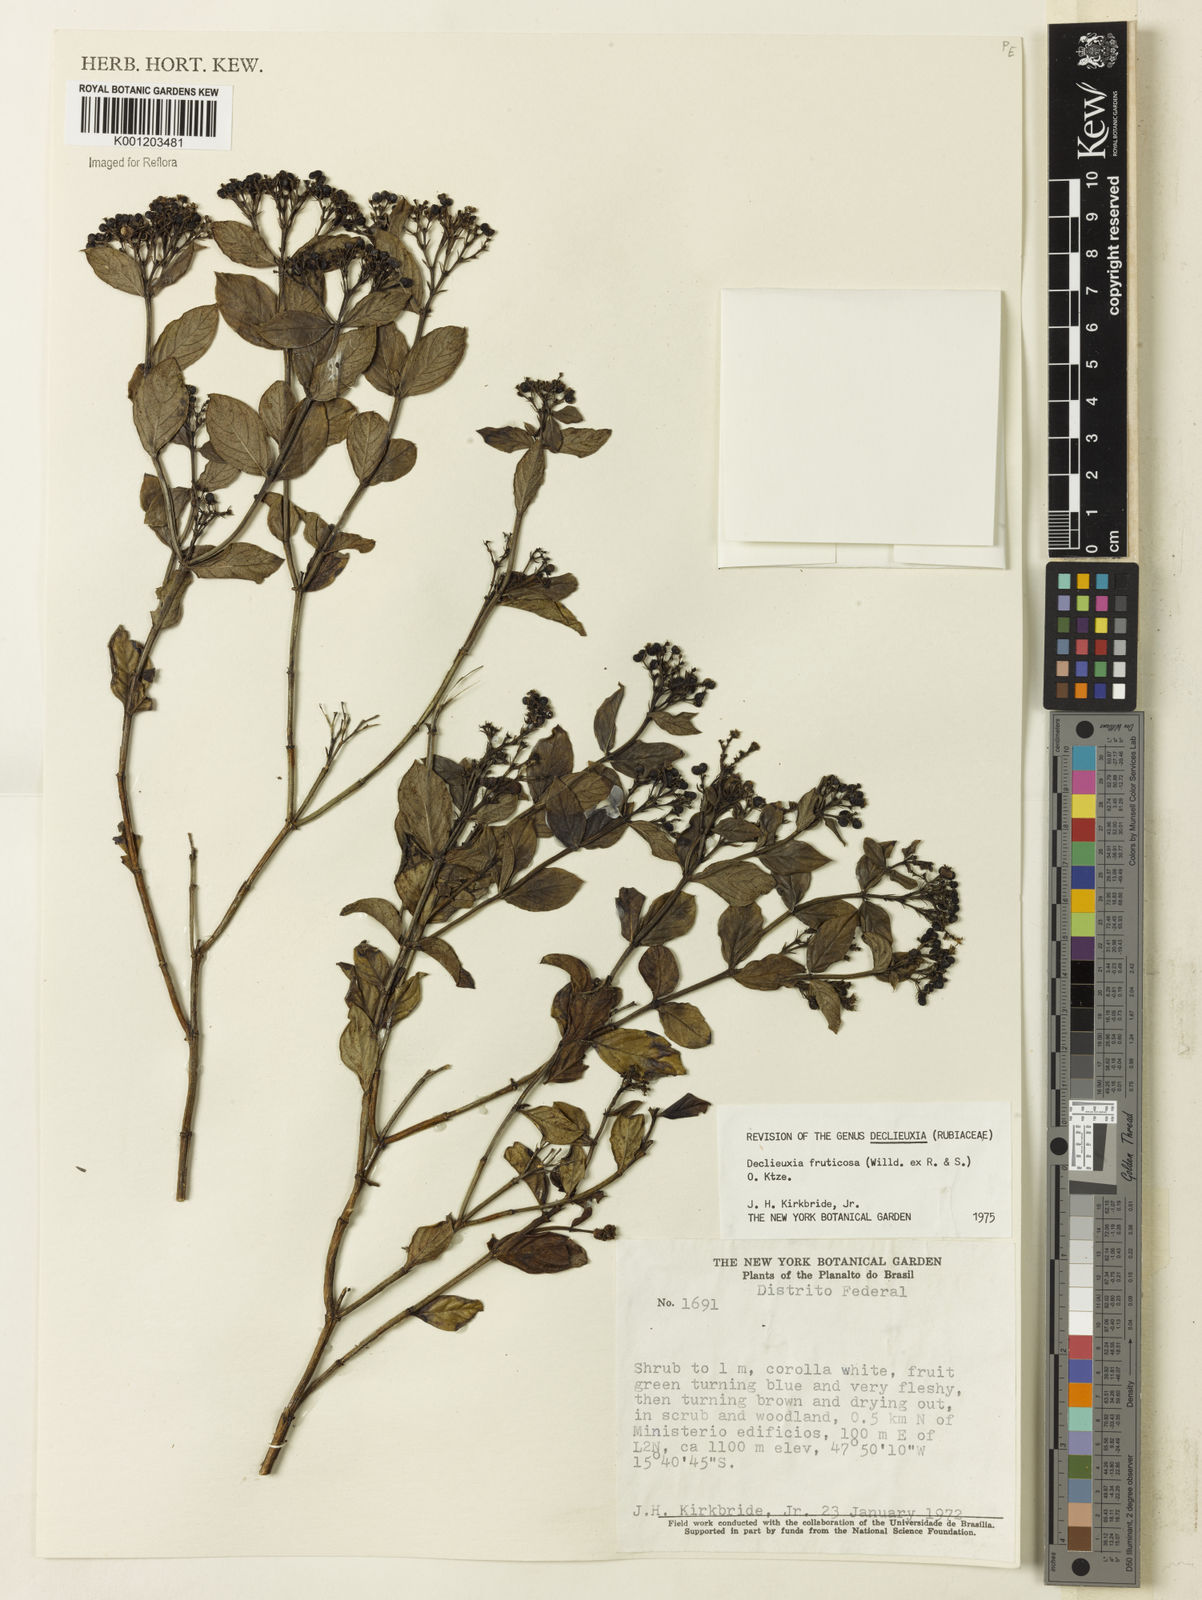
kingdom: Plantae
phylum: Tracheophyta
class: Magnoliopsida
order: Gentianales
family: Rubiaceae
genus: Declieuxia
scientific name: Declieuxia fruticosa
